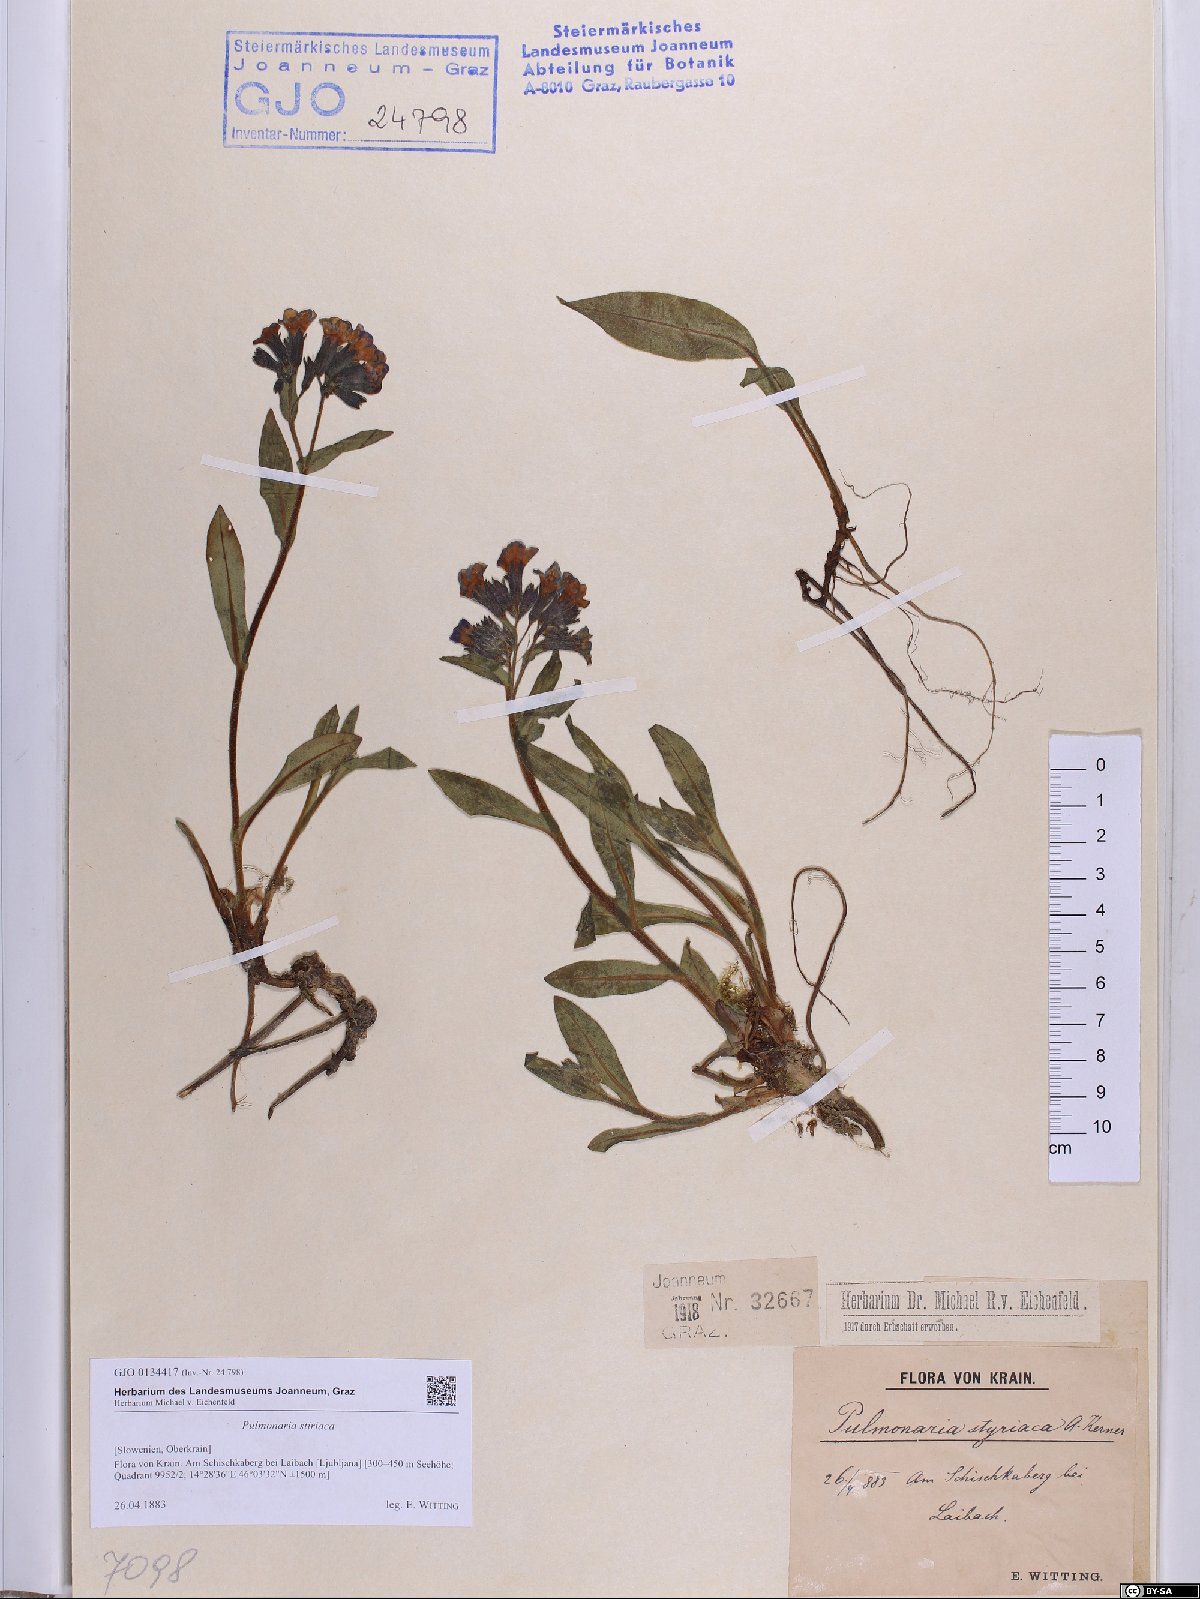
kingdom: Plantae
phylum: Tracheophyta
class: Magnoliopsida
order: Boraginales
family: Boraginaceae
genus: Pulmonaria
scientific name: Pulmonaria stiriaca
